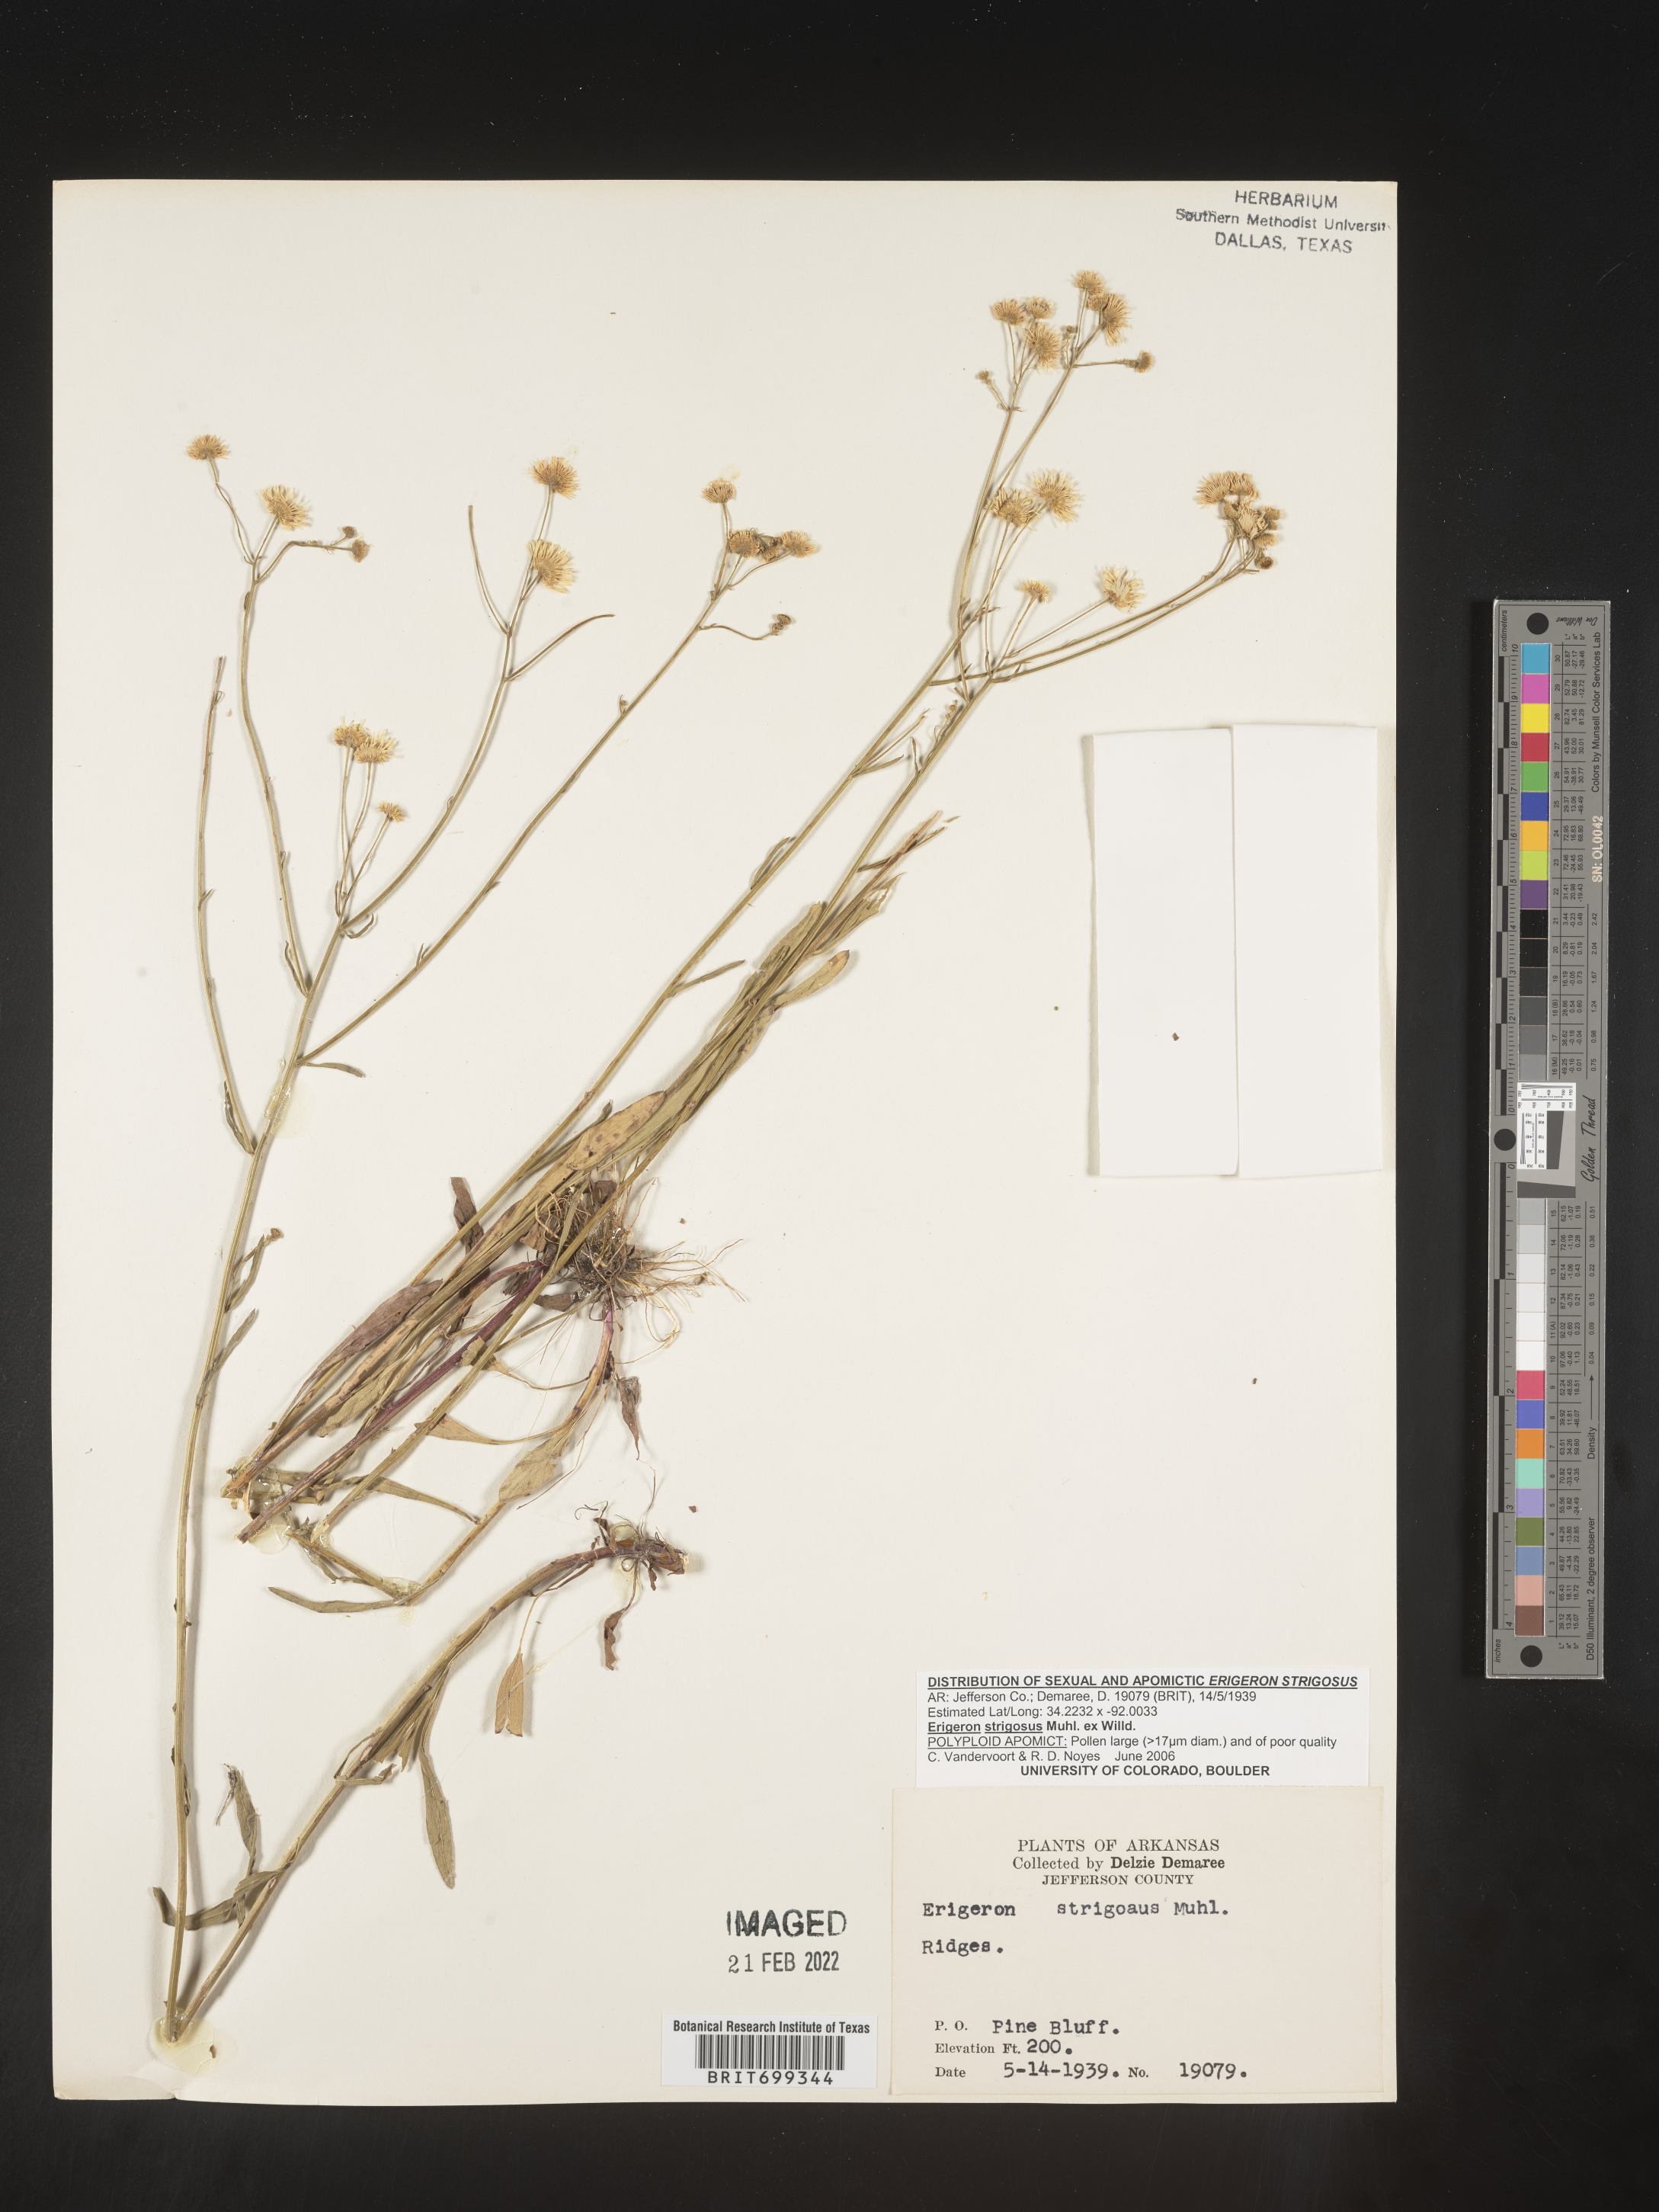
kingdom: Plantae
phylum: Tracheophyta
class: Magnoliopsida
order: Asterales
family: Asteraceae
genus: Erigeron
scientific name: Erigeron strigosus
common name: Common eastern fleabane
